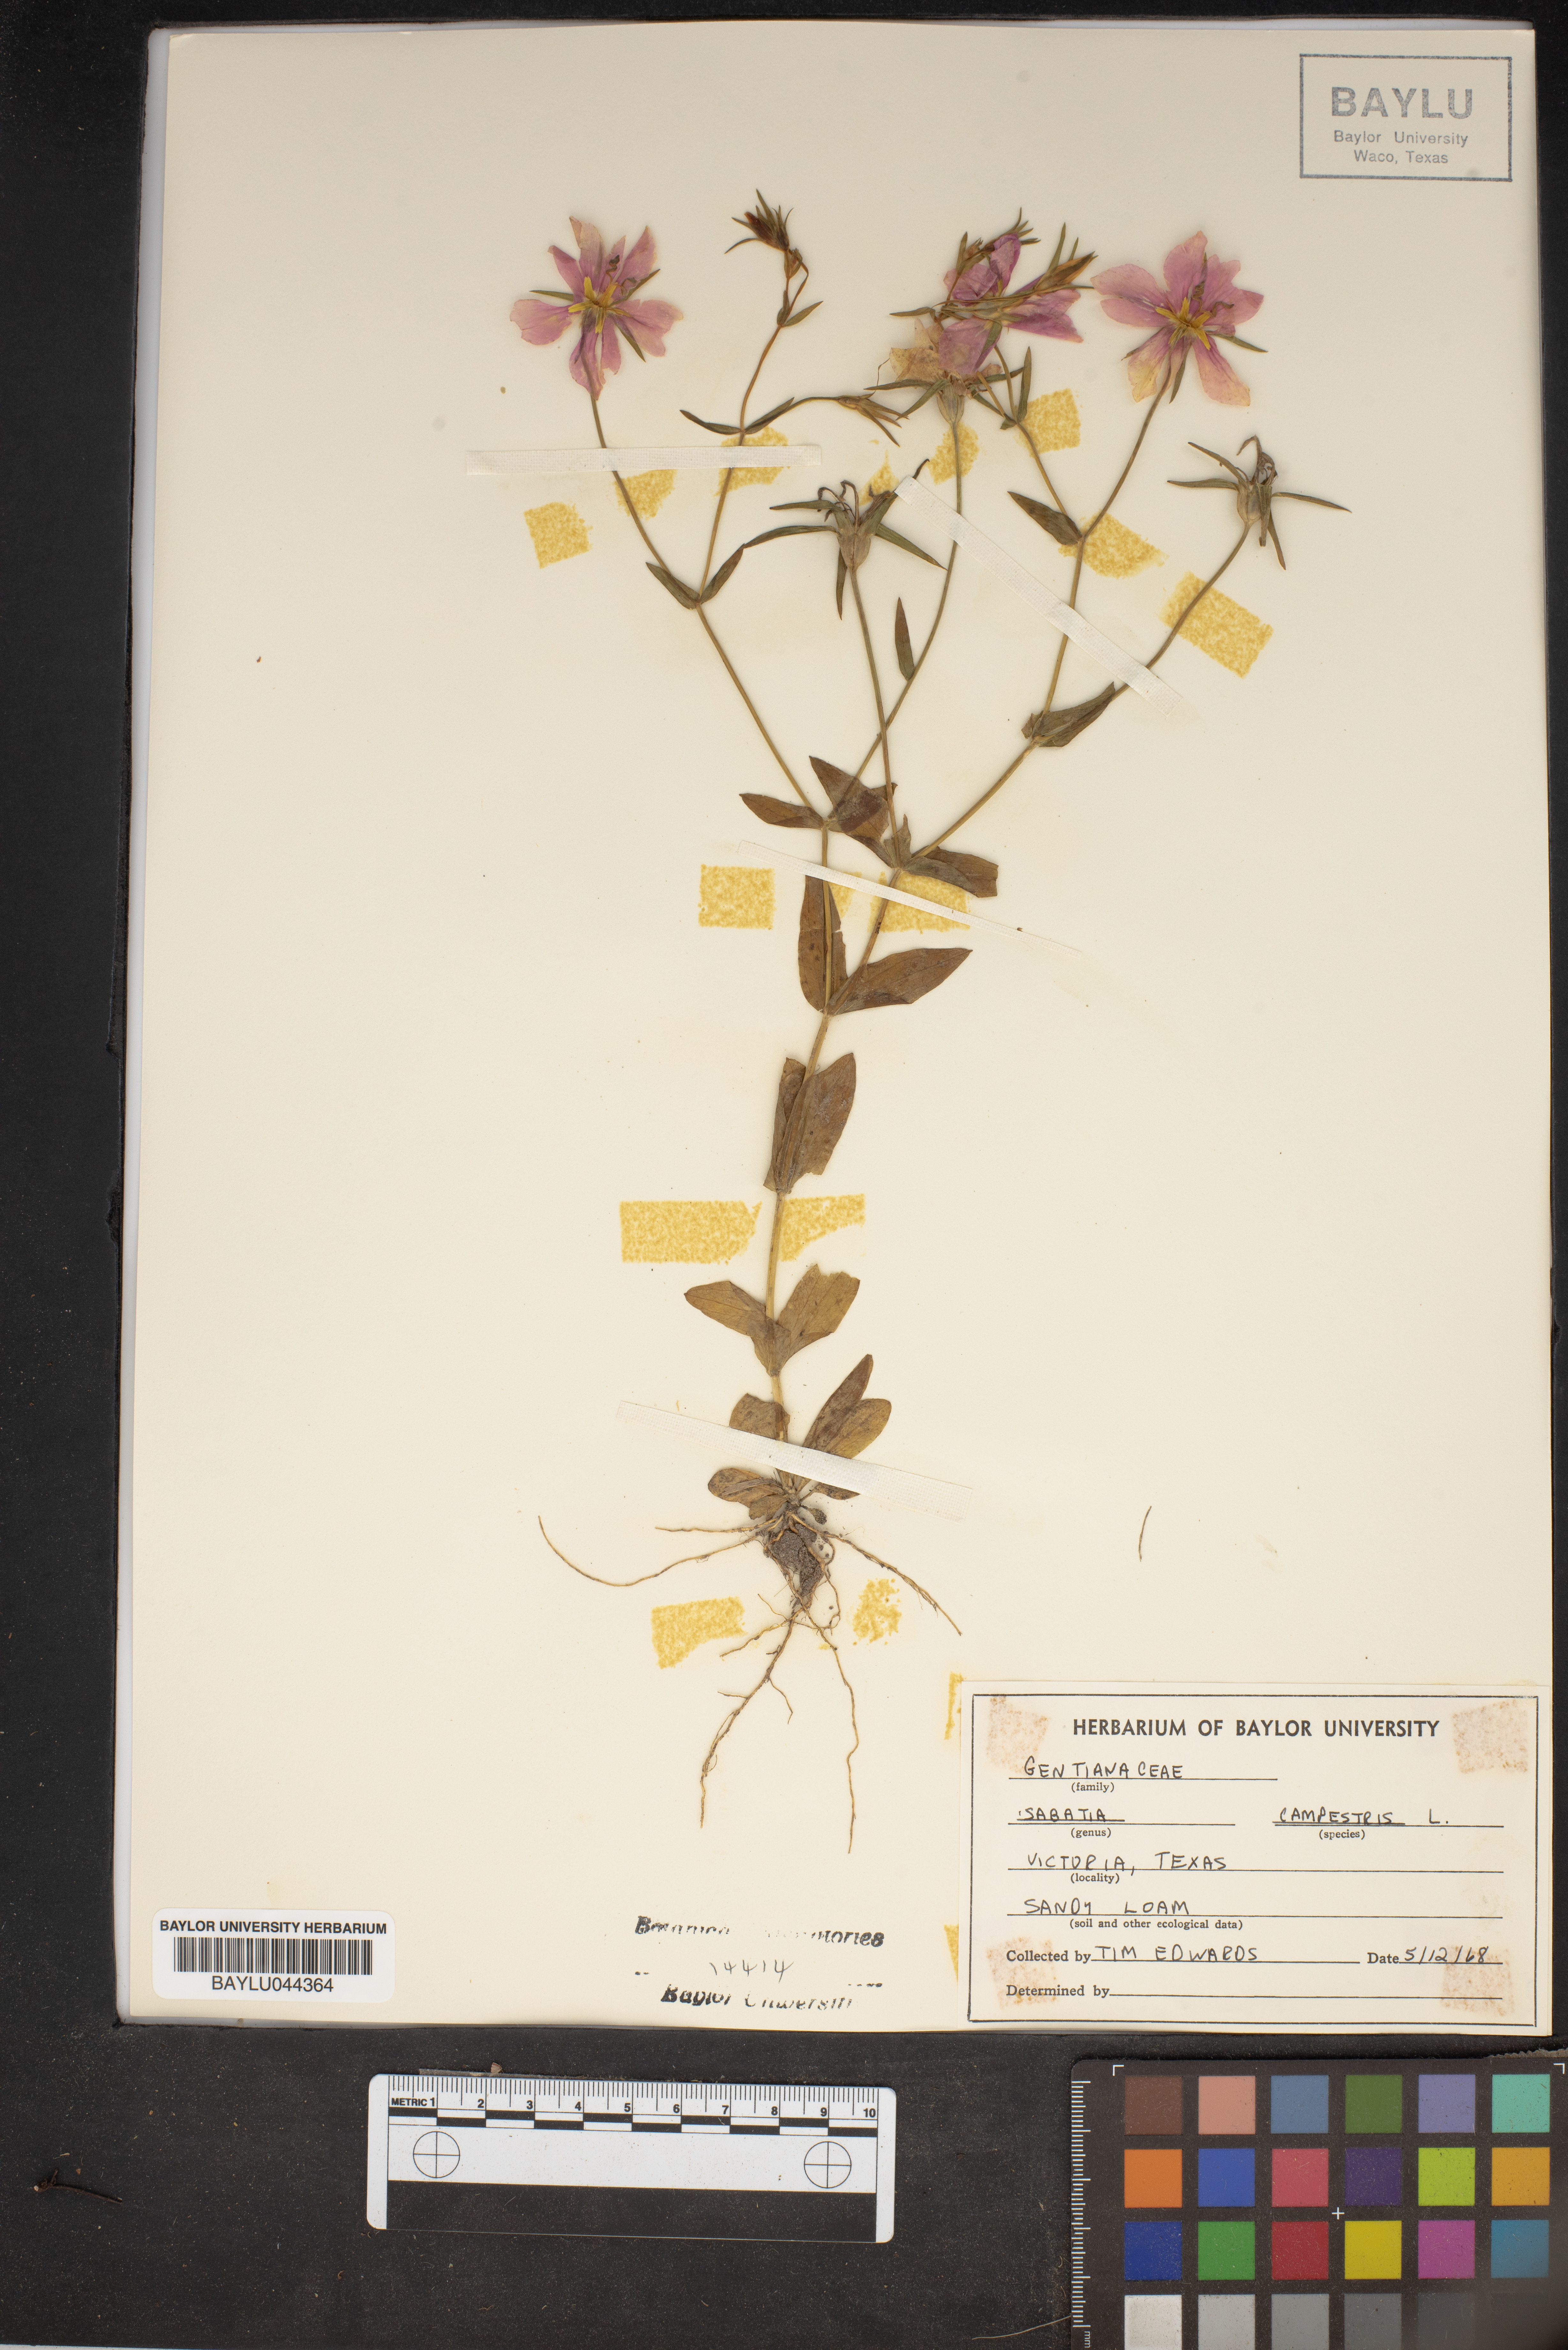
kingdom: Plantae
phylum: Tracheophyta
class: Magnoliopsida
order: Gentianales
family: Gentianaceae
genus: Sabatia
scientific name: Sabatia campestris
